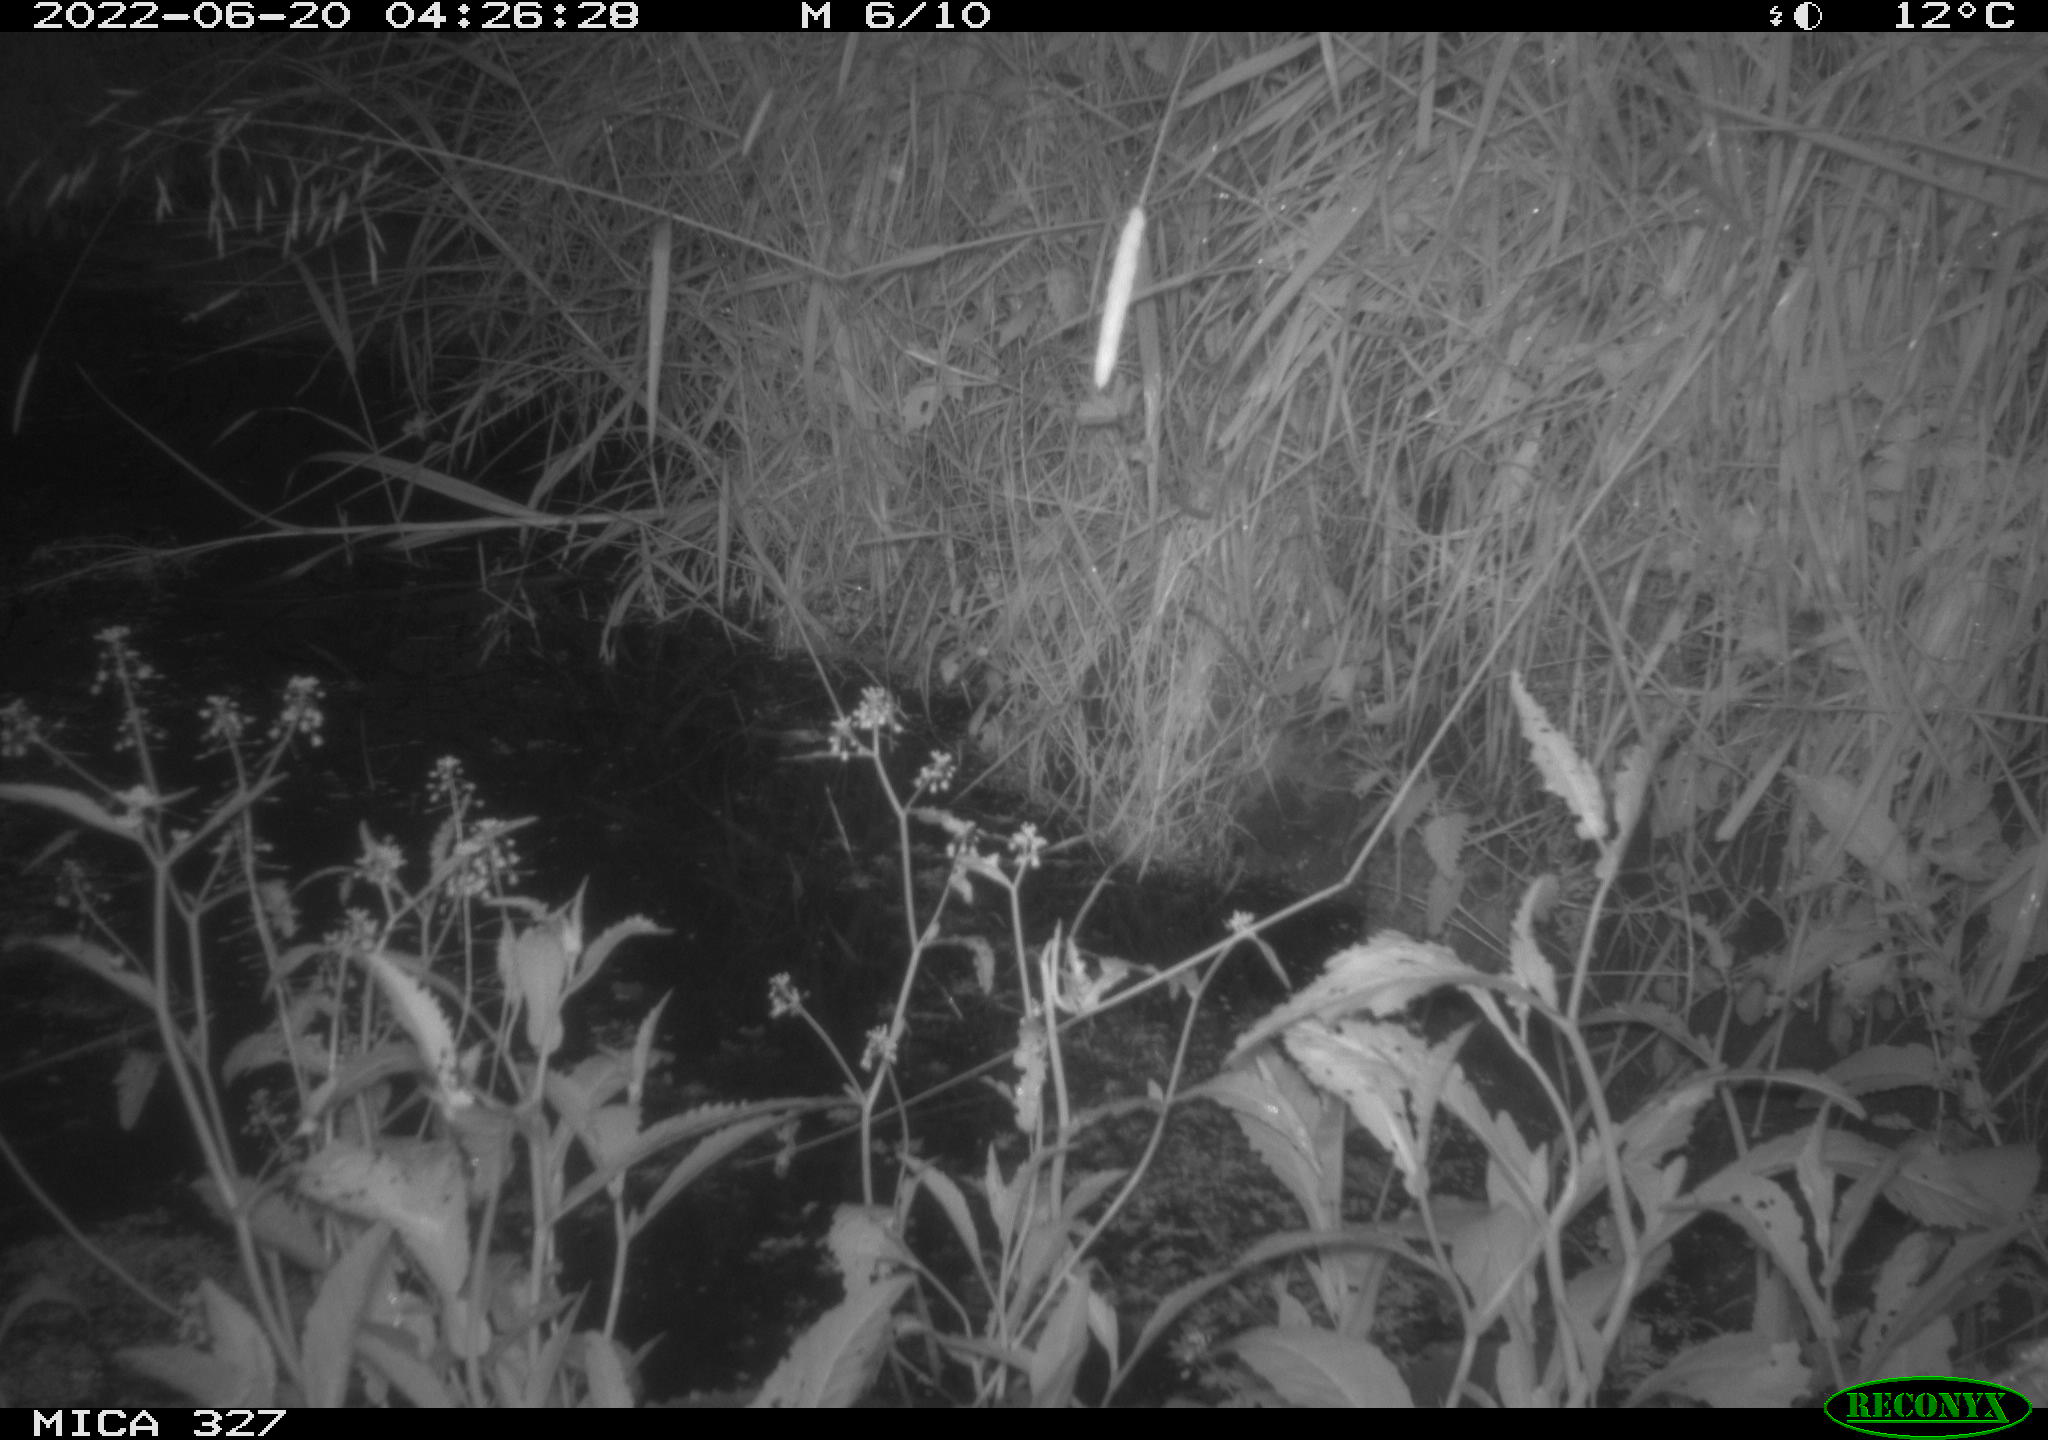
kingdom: Animalia
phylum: Chordata
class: Mammalia
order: Rodentia
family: Muridae
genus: Rattus
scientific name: Rattus norvegicus
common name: Brown rat
